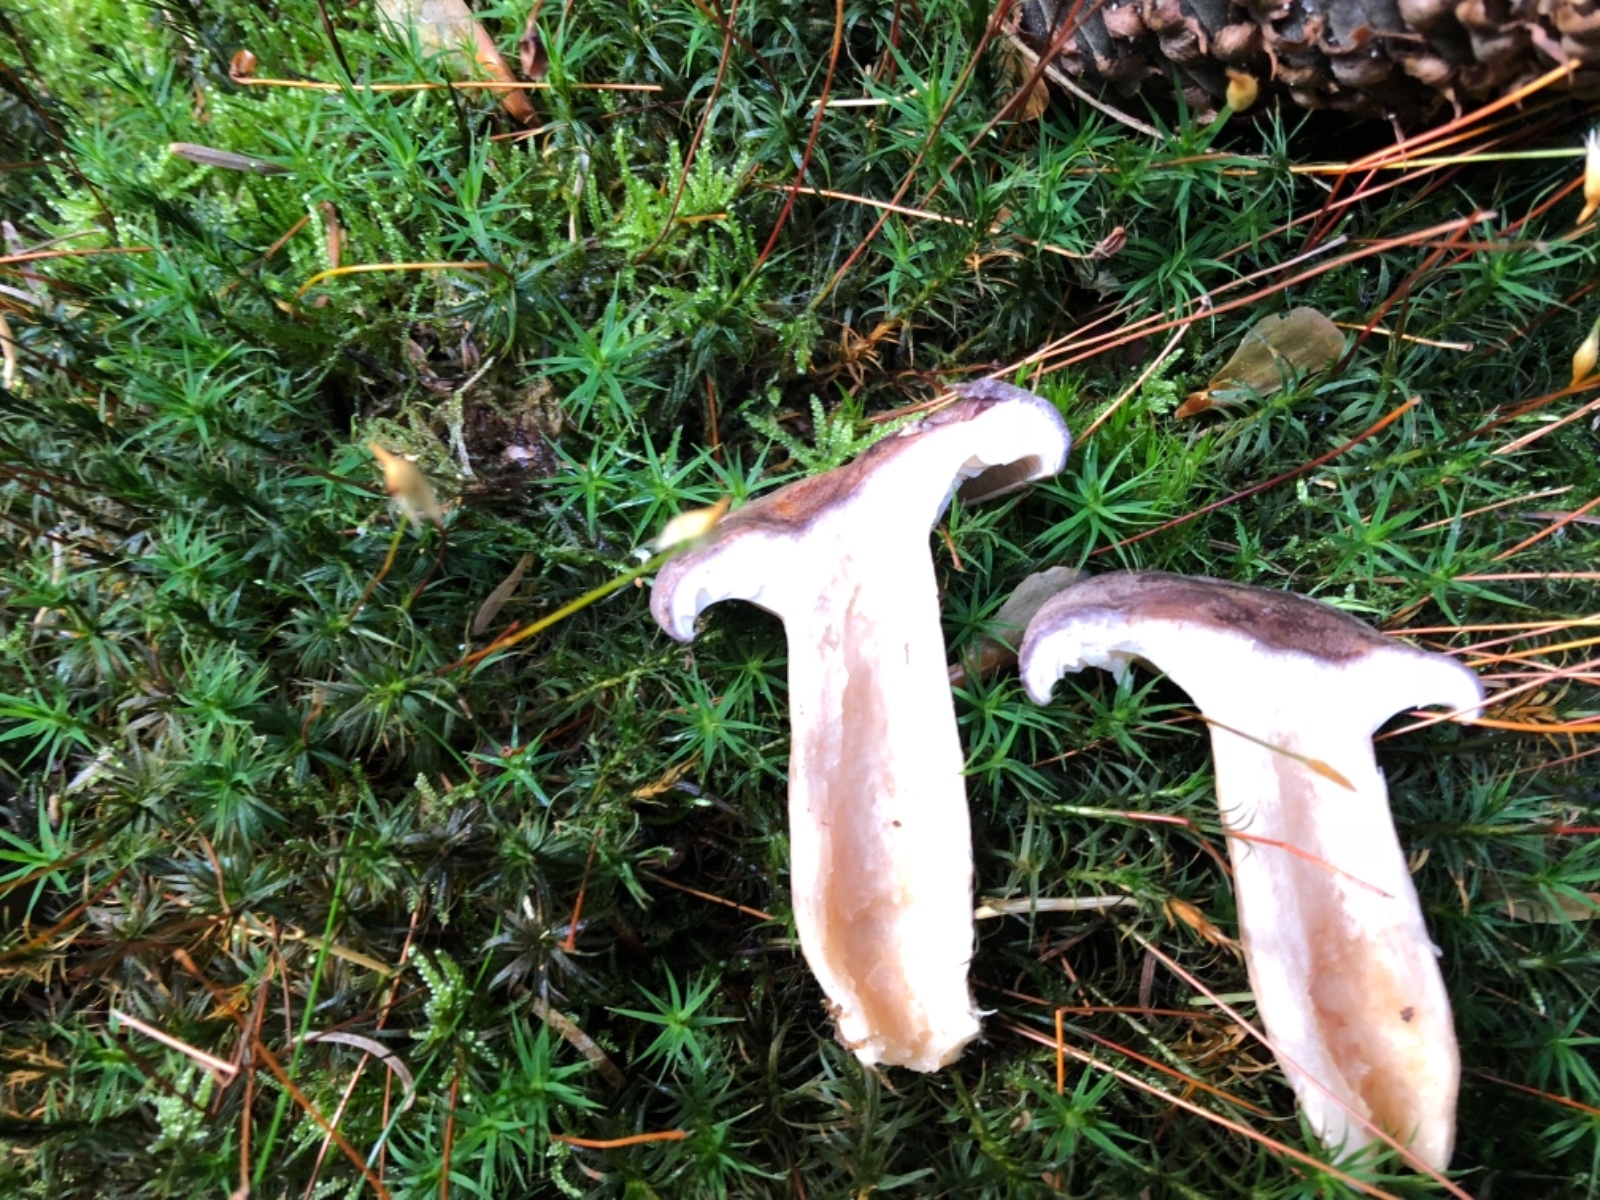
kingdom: Fungi
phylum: Basidiomycota
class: Agaricomycetes
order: Russulales
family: Russulaceae
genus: Lactarius
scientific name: Lactarius trivialis
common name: nordisk mælkehat
